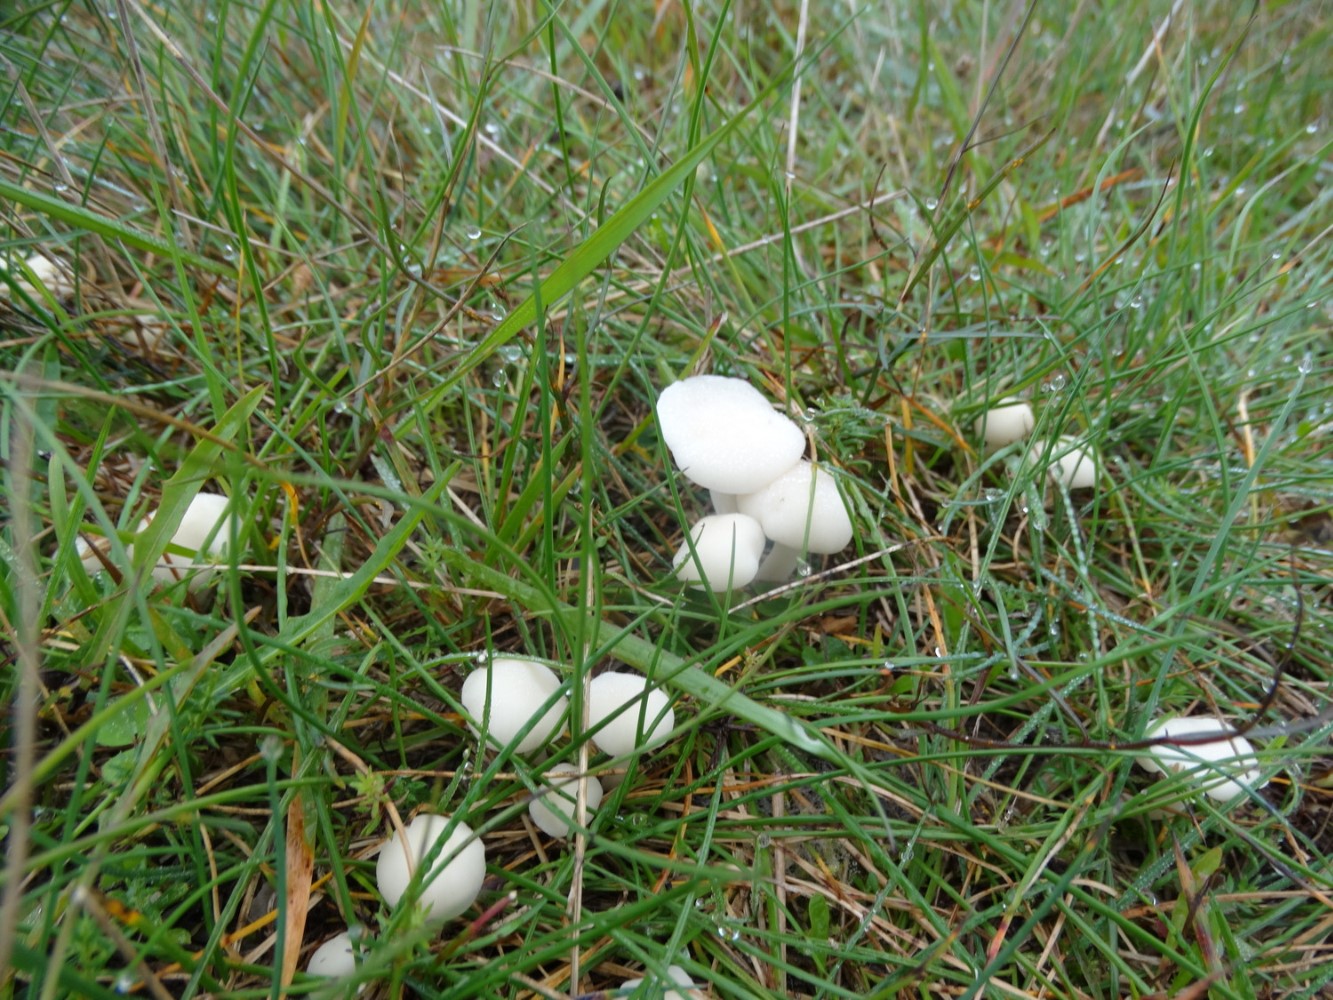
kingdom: Fungi
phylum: Basidiomycota
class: Agaricomycetes
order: Agaricales
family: Hygrophoraceae
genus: Cuphophyllus
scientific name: Cuphophyllus virgineus
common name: snehvid vokshat
